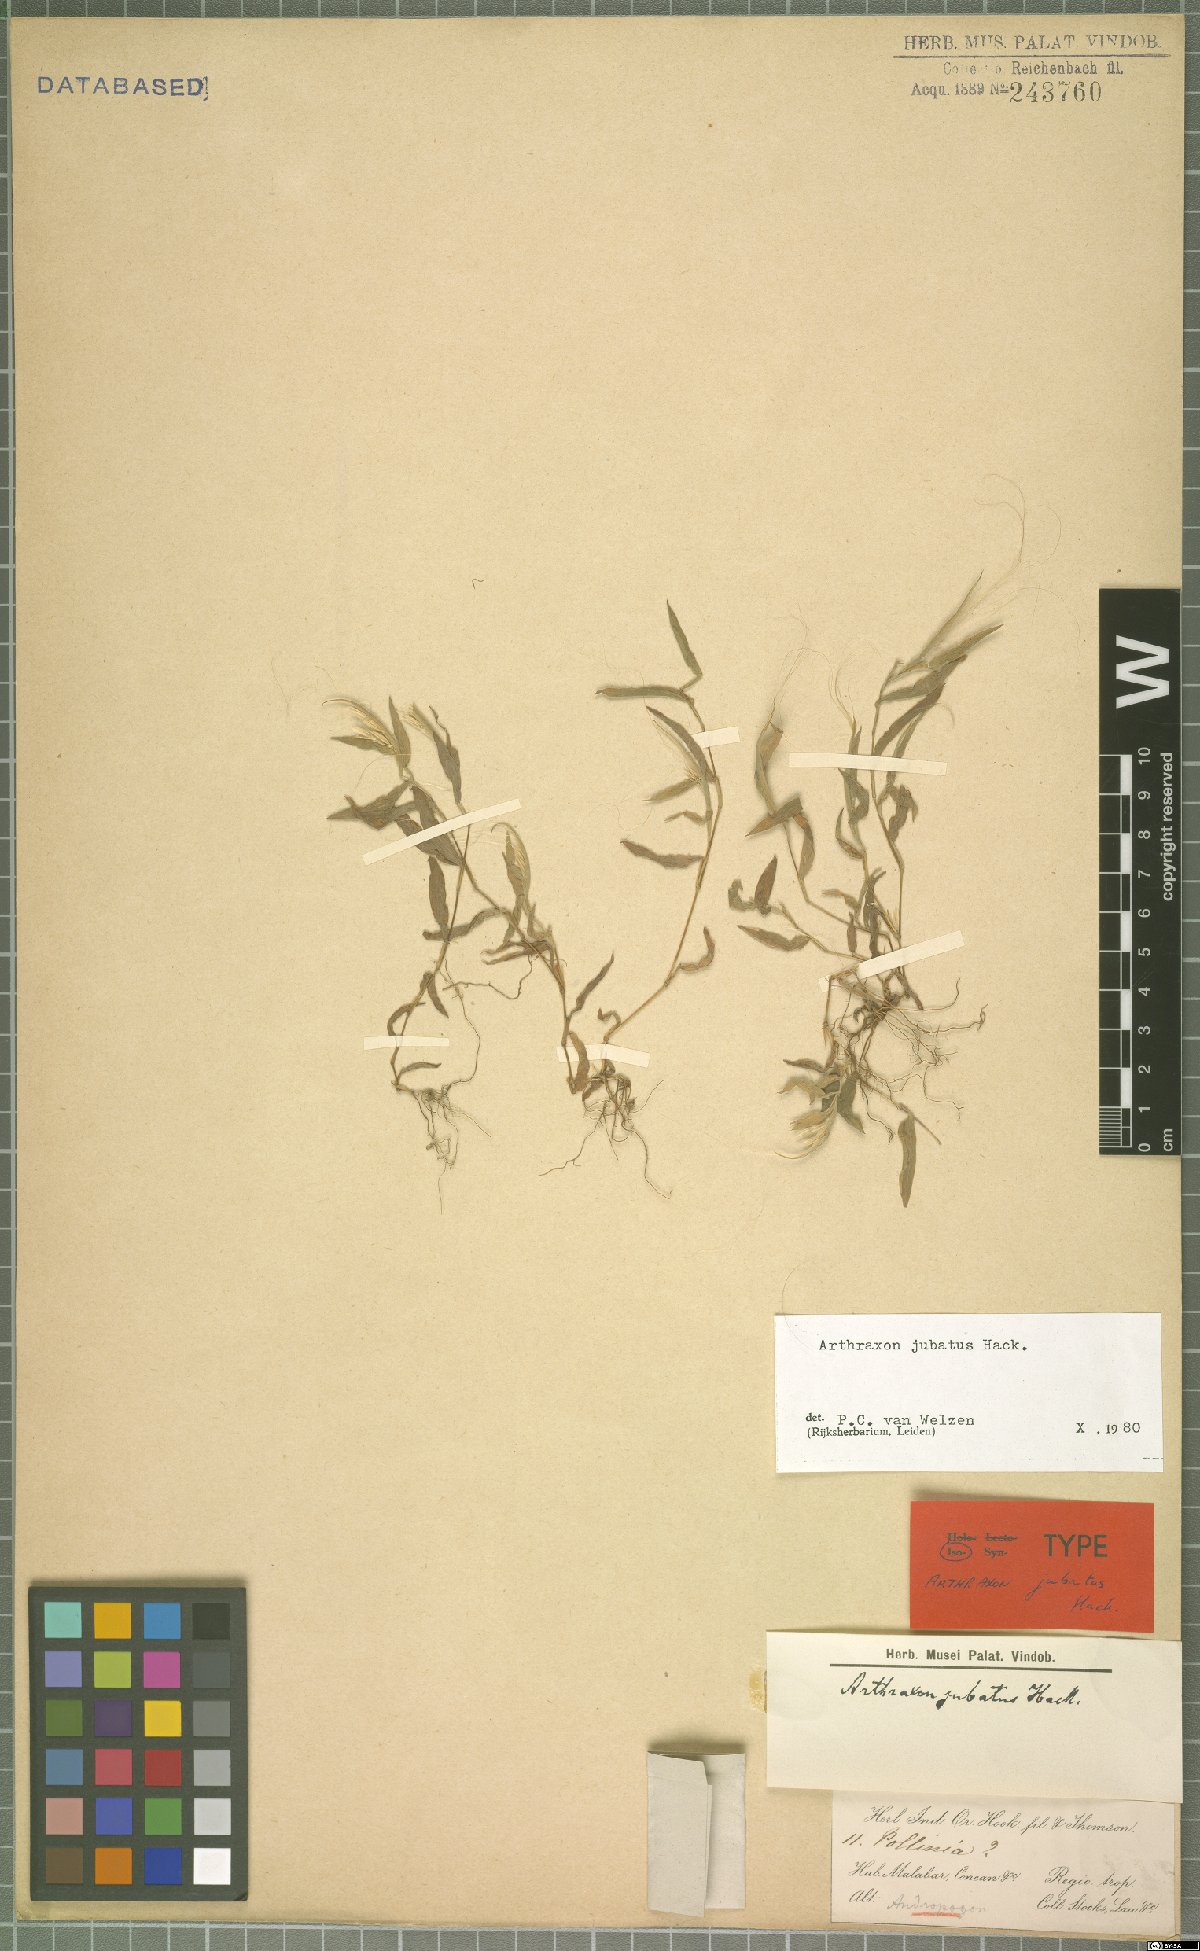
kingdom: Plantae
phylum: Tracheophyta
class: Liliopsida
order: Poales
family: Poaceae
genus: Arthraxon
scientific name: Arthraxon jubatus
